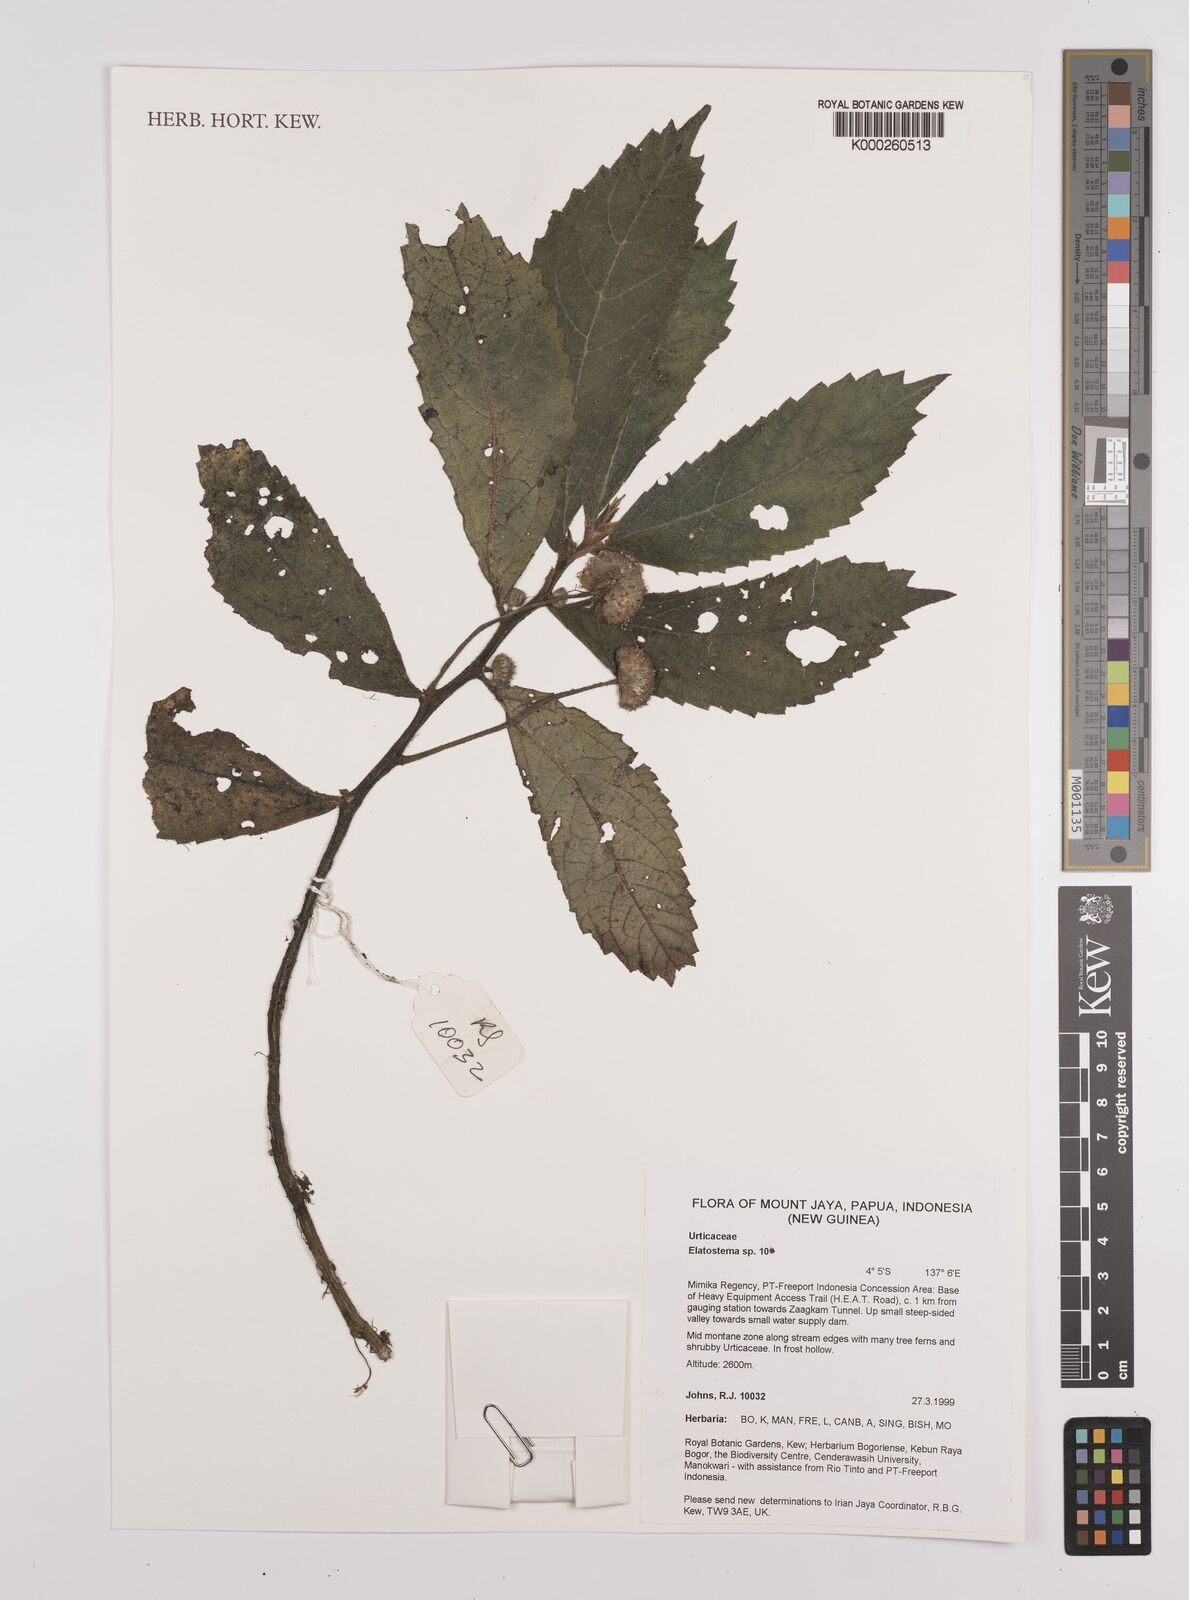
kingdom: Plantae
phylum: Tracheophyta
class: Magnoliopsida
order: Rosales
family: Urticaceae
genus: Elatostema
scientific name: Elatostema
